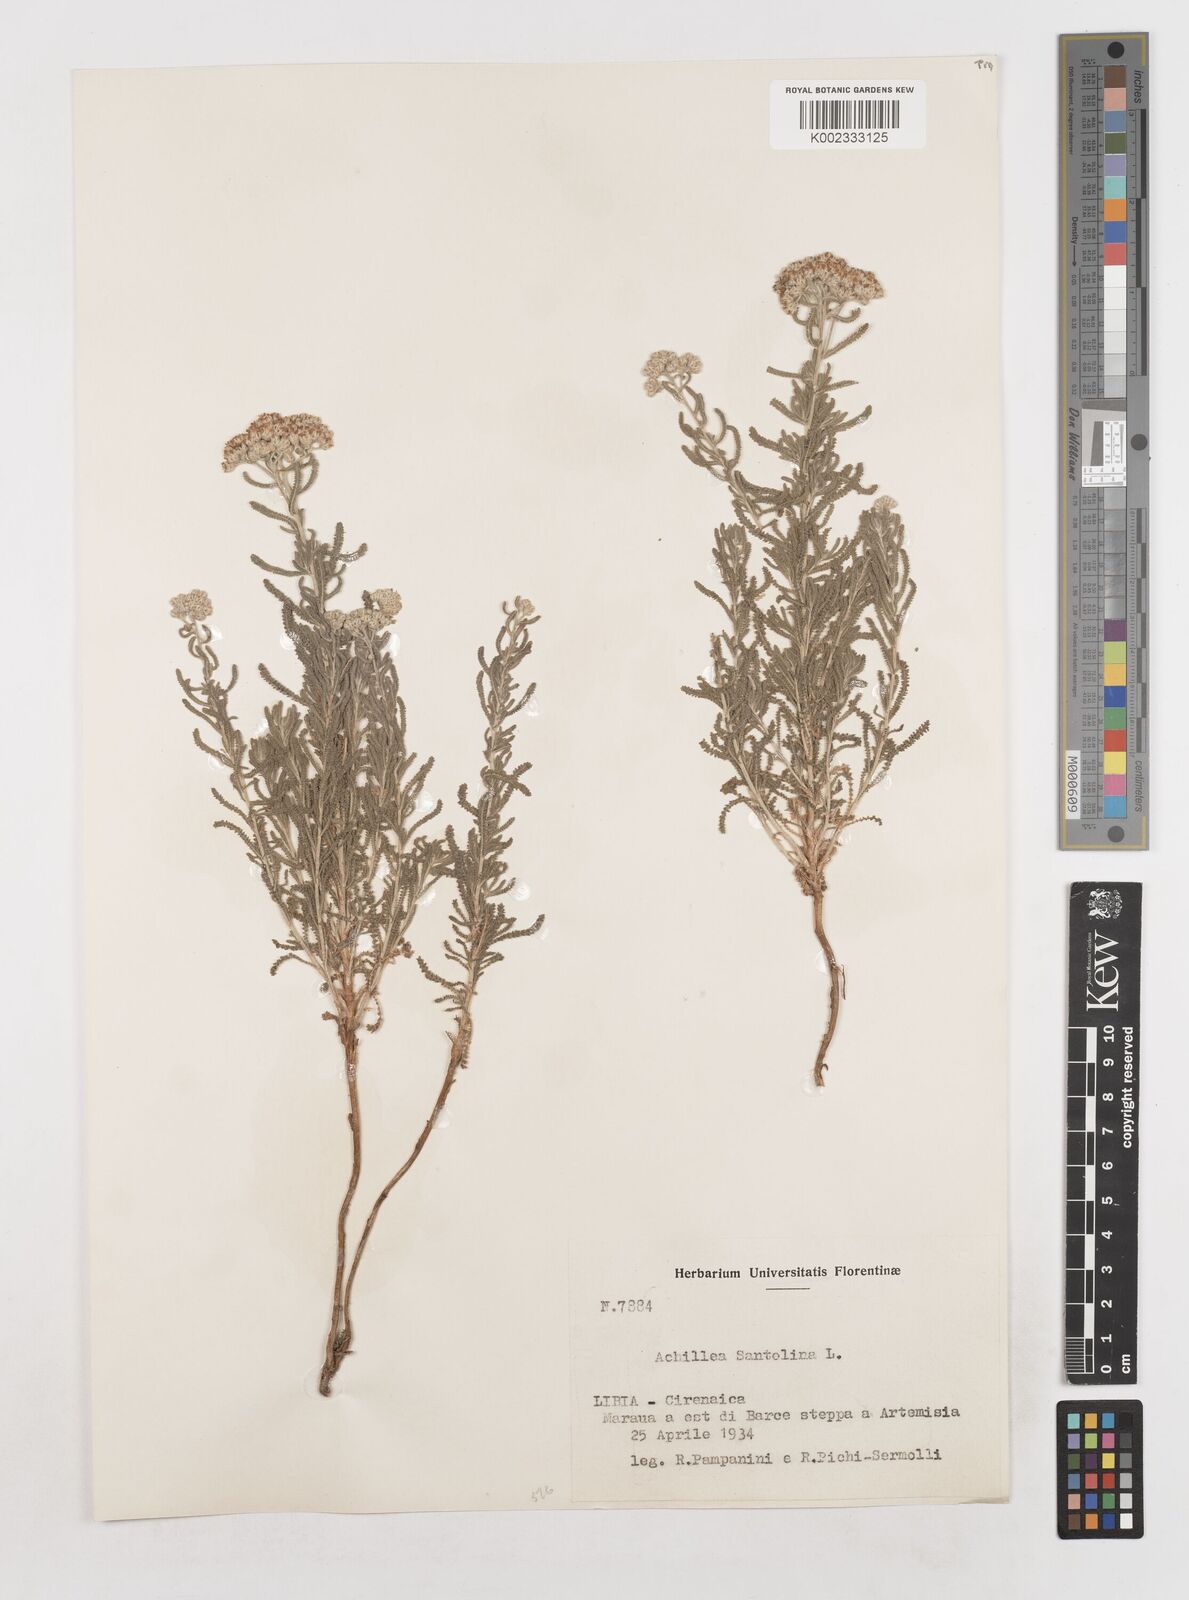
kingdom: Plantae
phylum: Tracheophyta
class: Magnoliopsida
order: Asterales
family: Asteraceae
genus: Achillea
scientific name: Achillea tenuifolia
